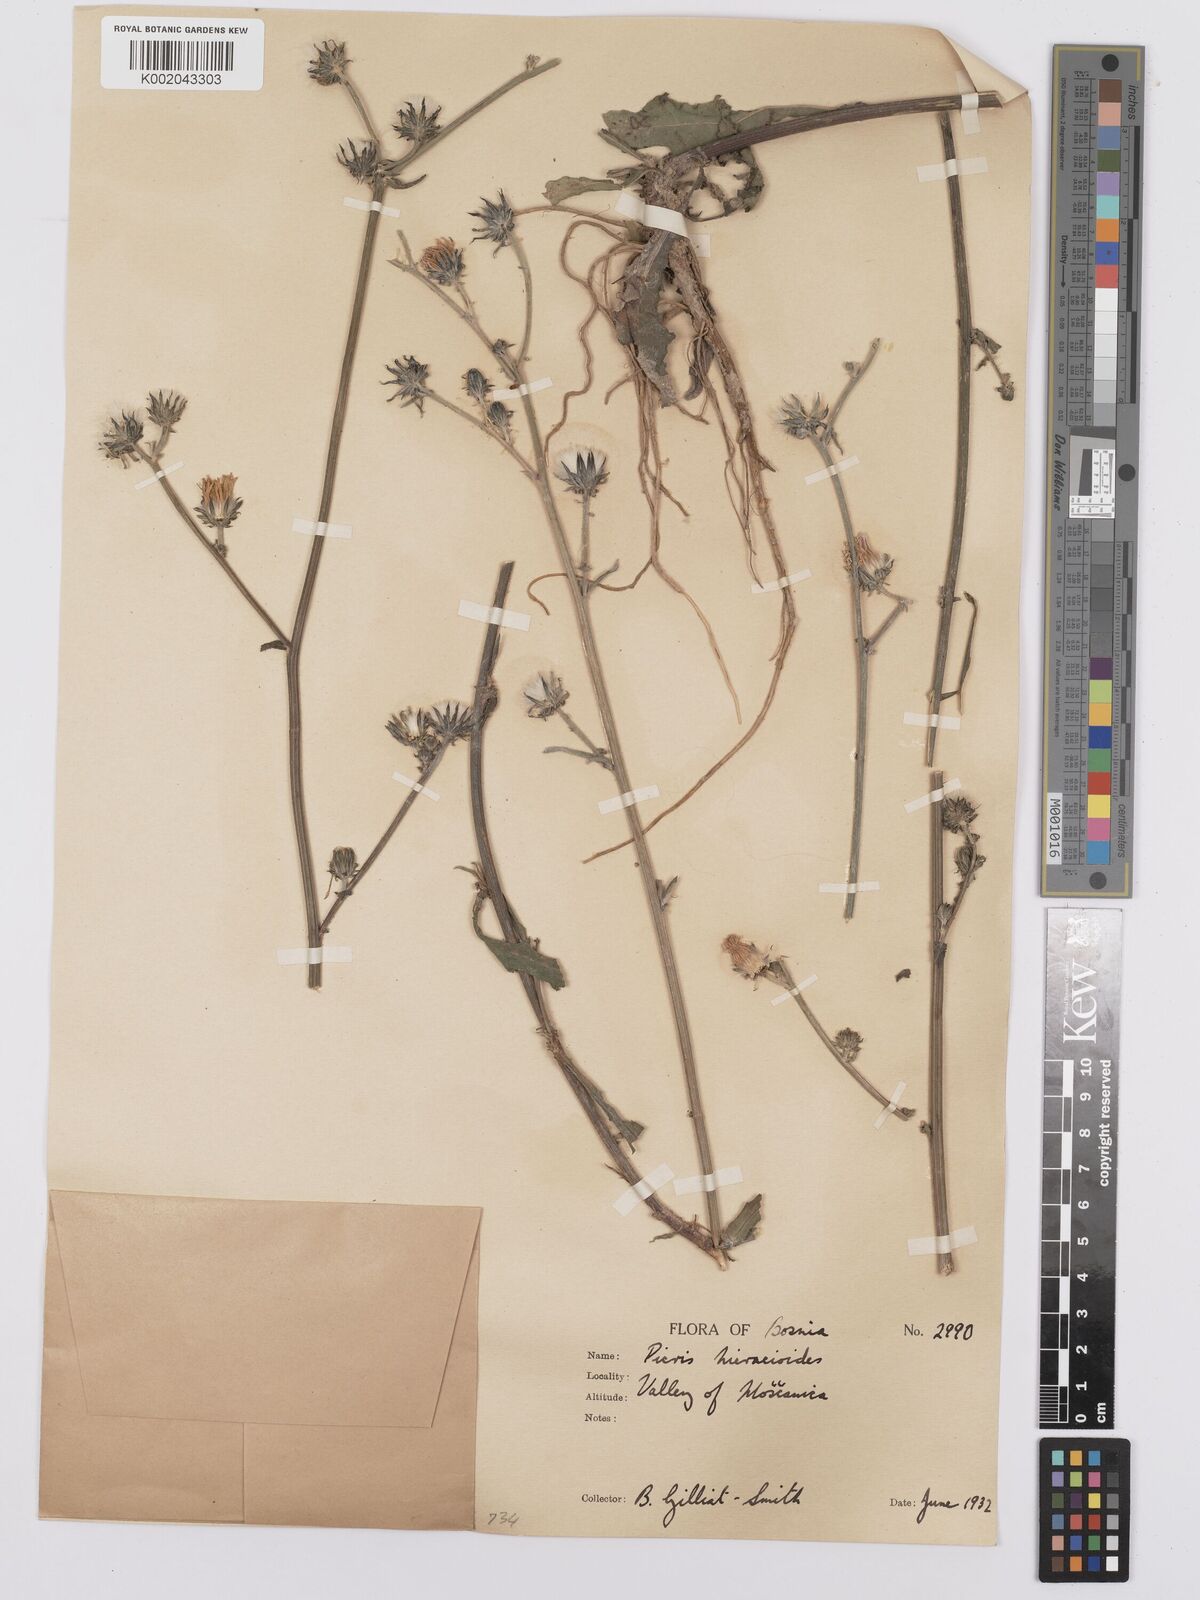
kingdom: Plantae
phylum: Tracheophyta
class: Magnoliopsida
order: Asterales
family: Asteraceae
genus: Picris
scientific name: Picris hieracioides
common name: Hawkweed oxtongue
